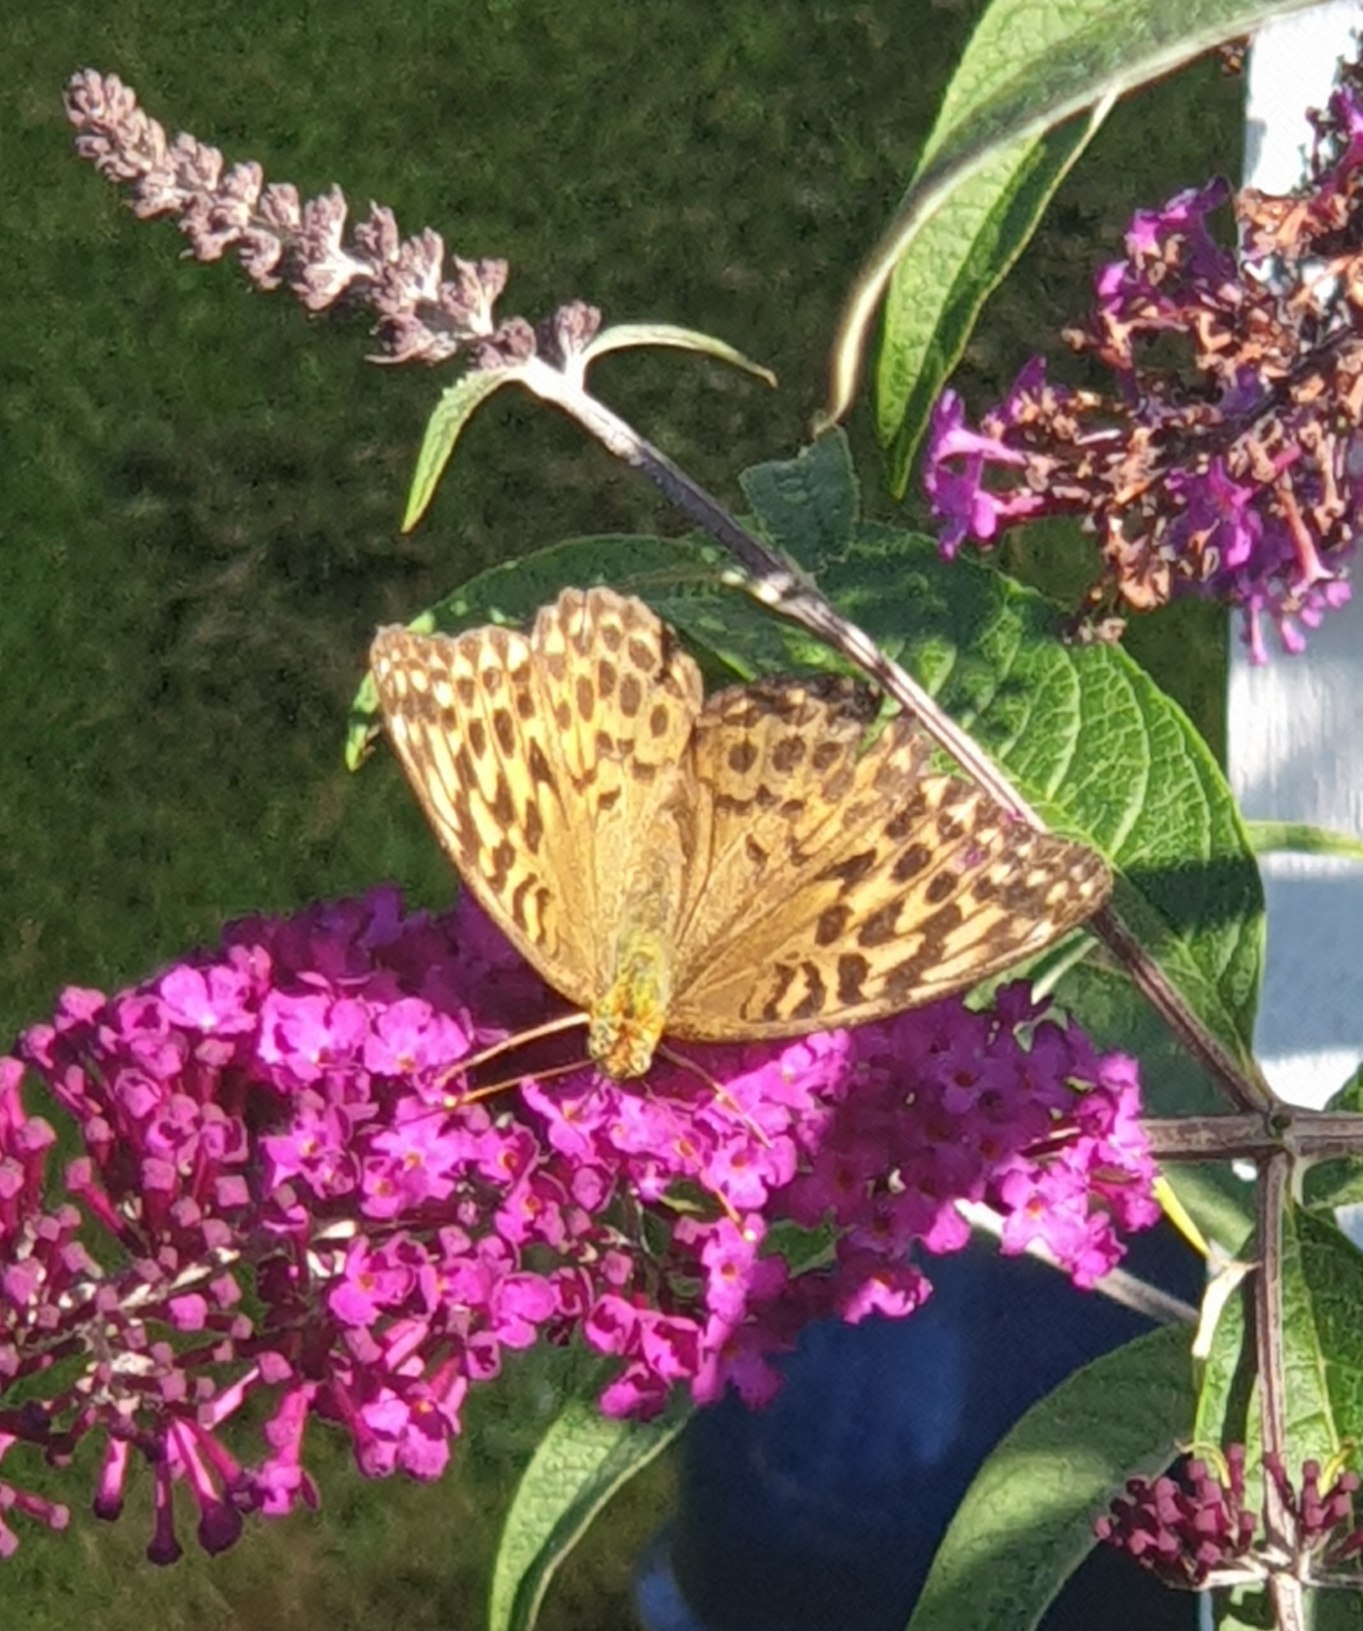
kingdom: Animalia
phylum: Arthropoda
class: Insecta
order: Lepidoptera
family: Nymphalidae
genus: Argynnis
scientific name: Argynnis paphia
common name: Kejserkåbe
